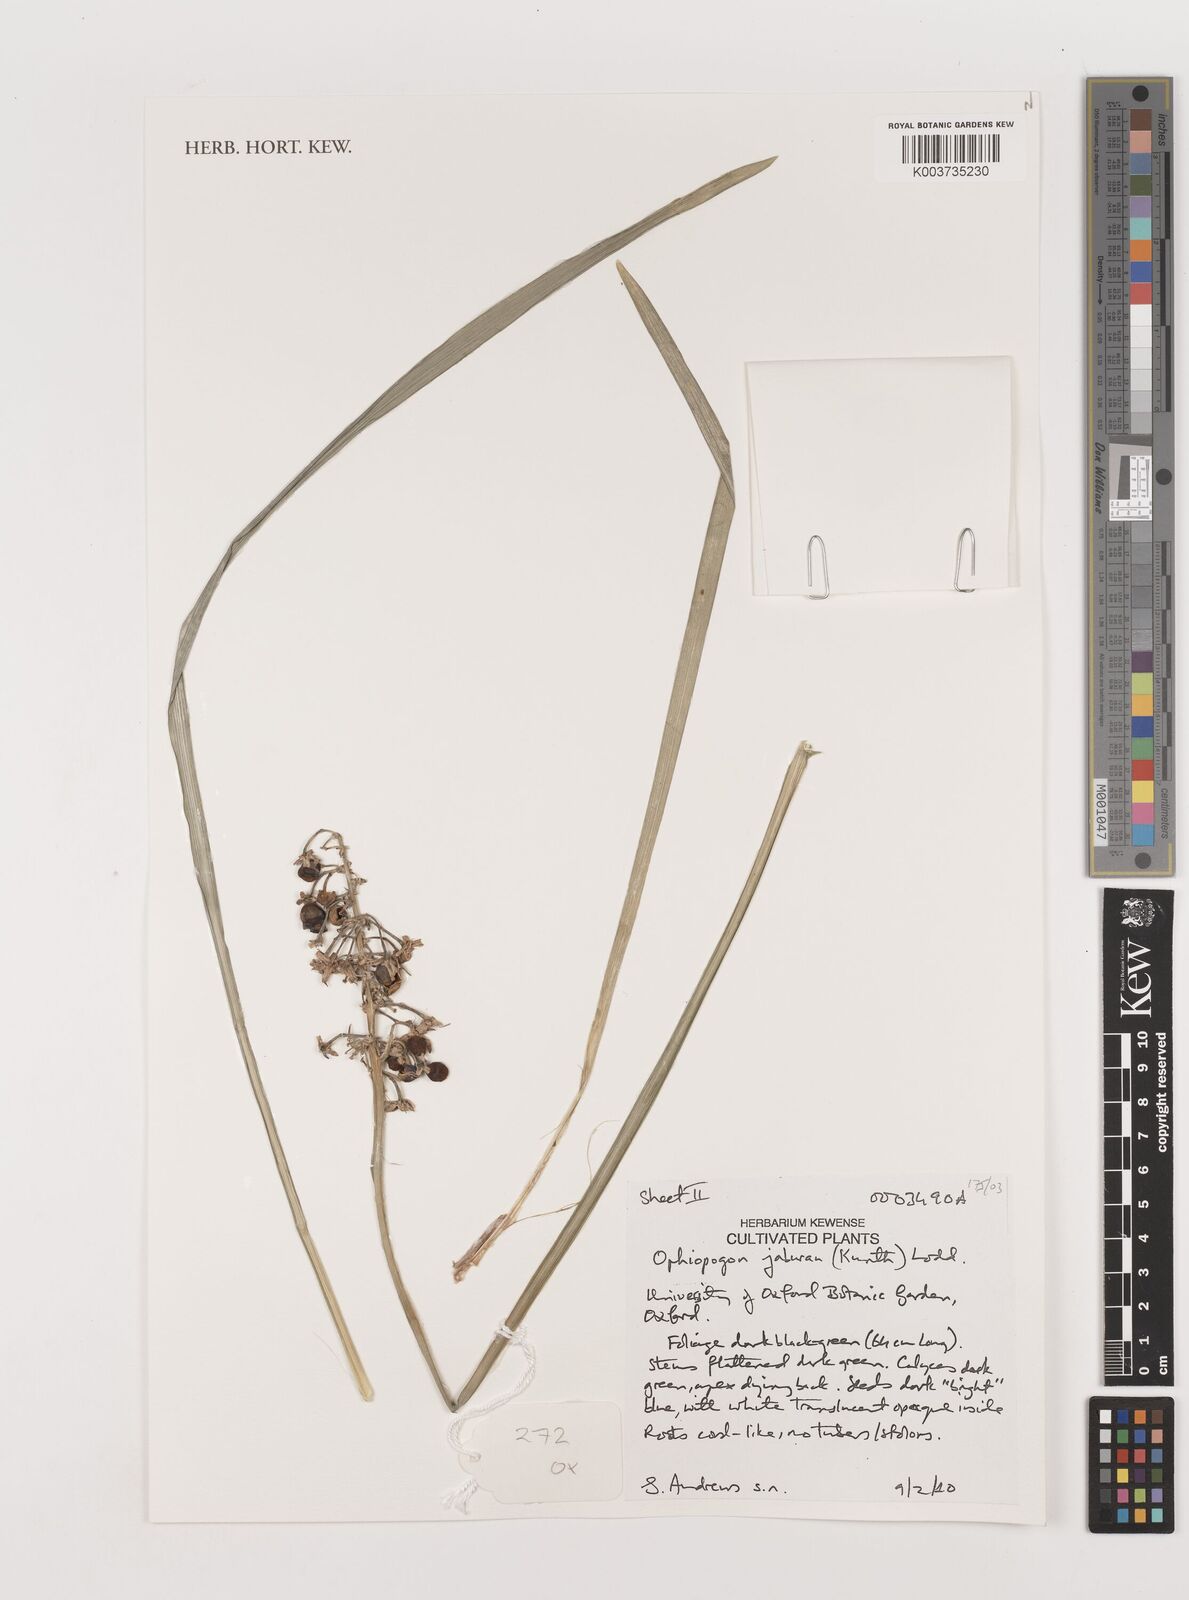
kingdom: Plantae
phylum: Tracheophyta
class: Liliopsida
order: Asparagales
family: Asparagaceae
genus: Ophiopogon
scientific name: Ophiopogon jaburan
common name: Lilyturf
